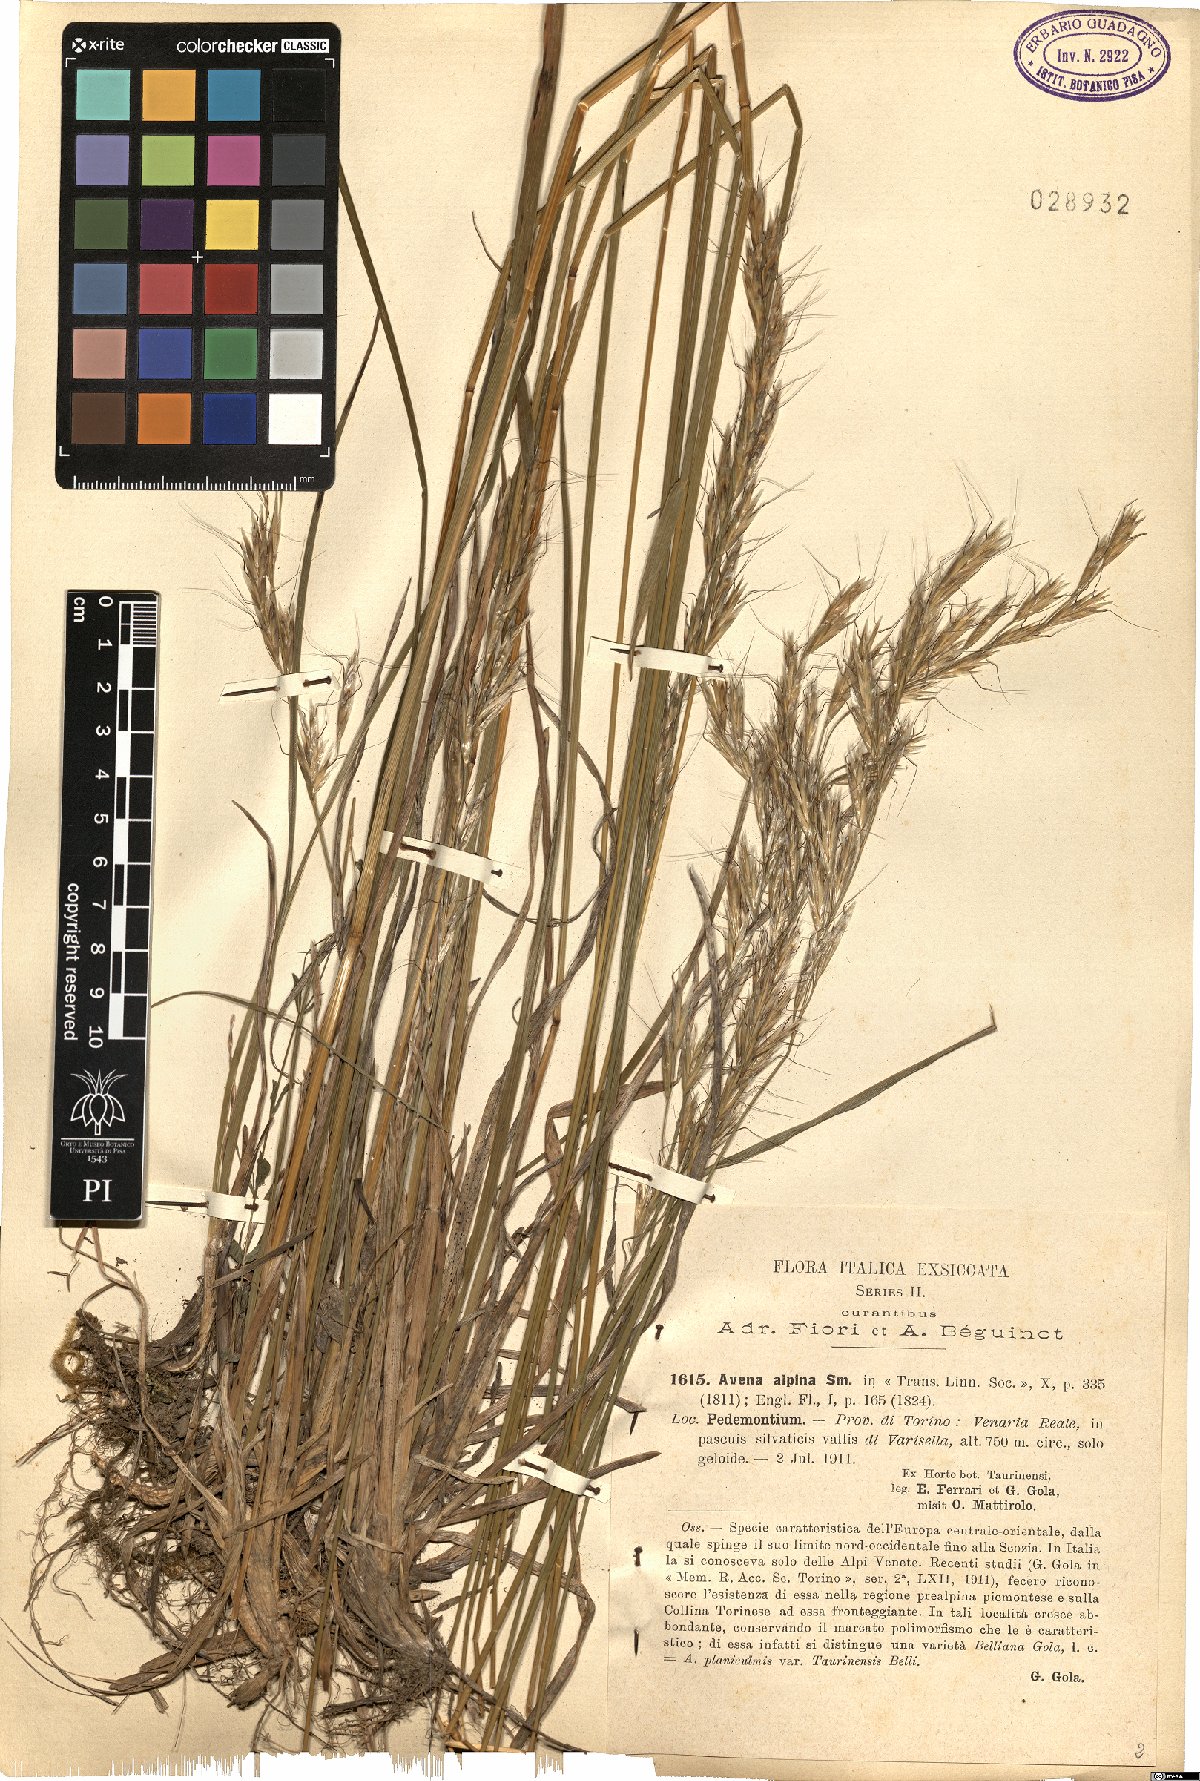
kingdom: Plantae
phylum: Tracheophyta
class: Liliopsida
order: Poales
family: Poaceae
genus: Helictochloa
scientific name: Helictochloa pratensis
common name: Meadow oat grass
